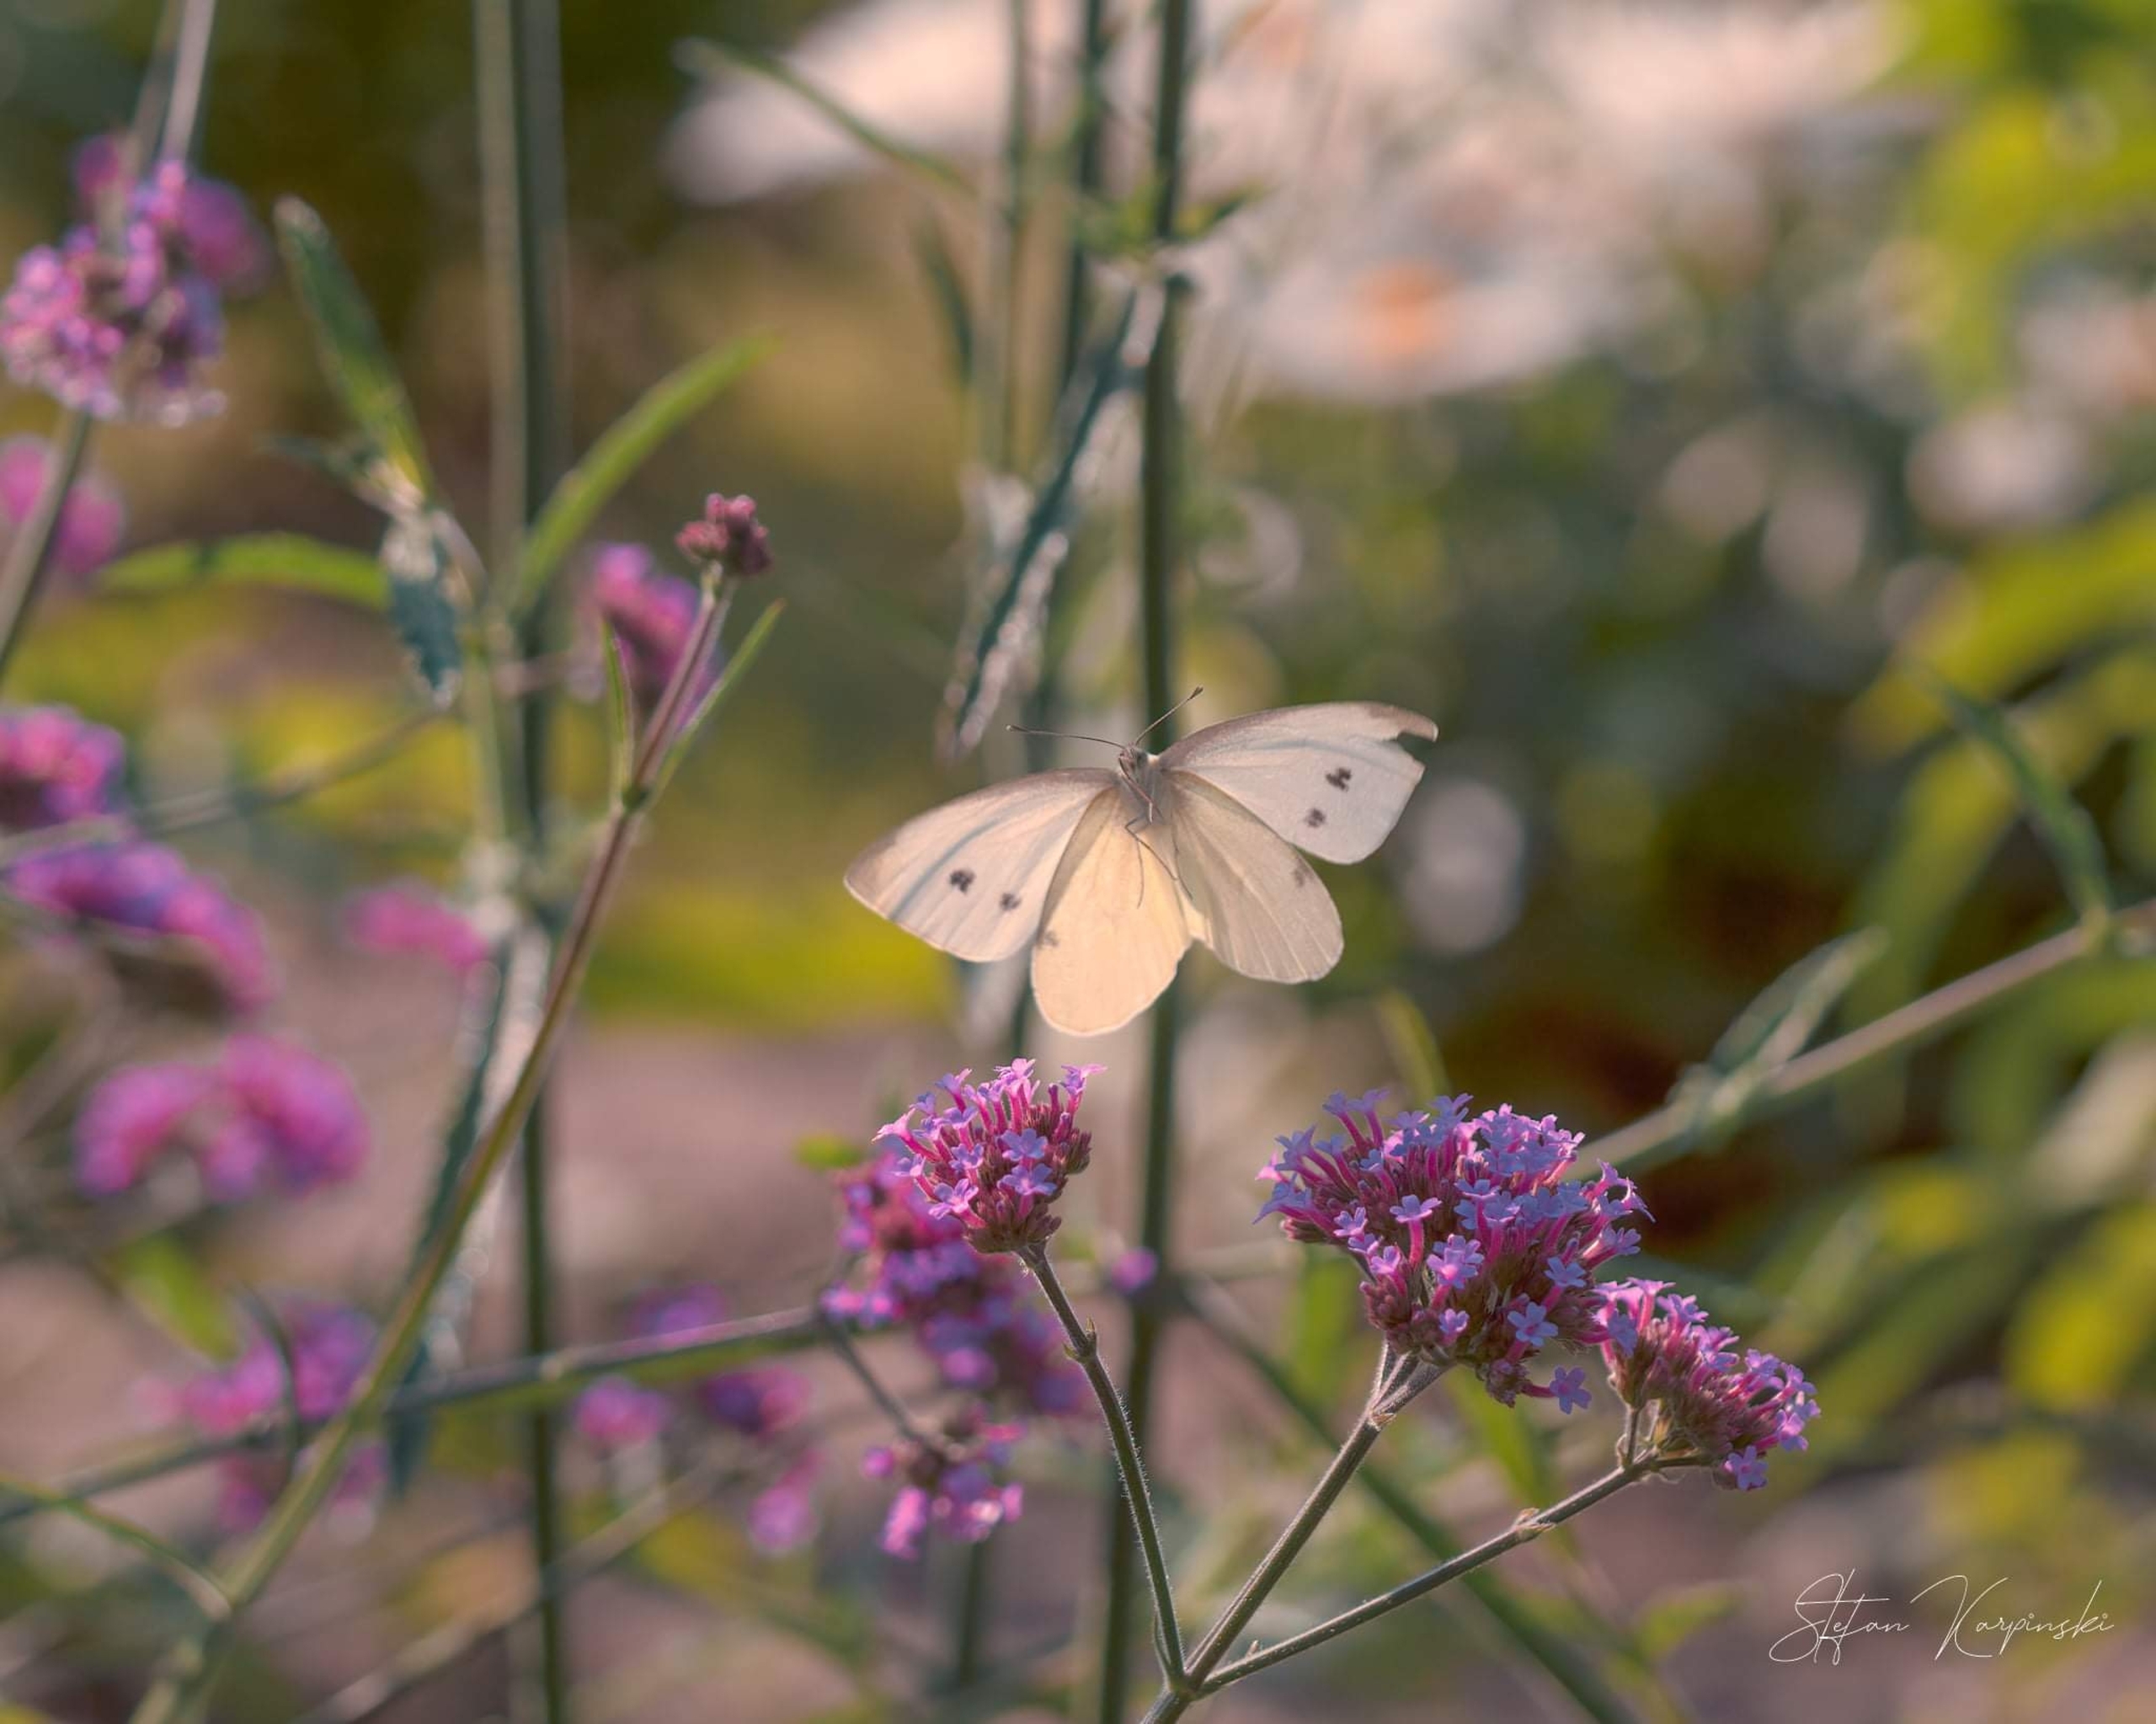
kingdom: Animalia
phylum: Arthropoda
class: Insecta
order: Lepidoptera
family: Pieridae
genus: Pieris
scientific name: Pieris rapae
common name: Lille kålsommerfugl
